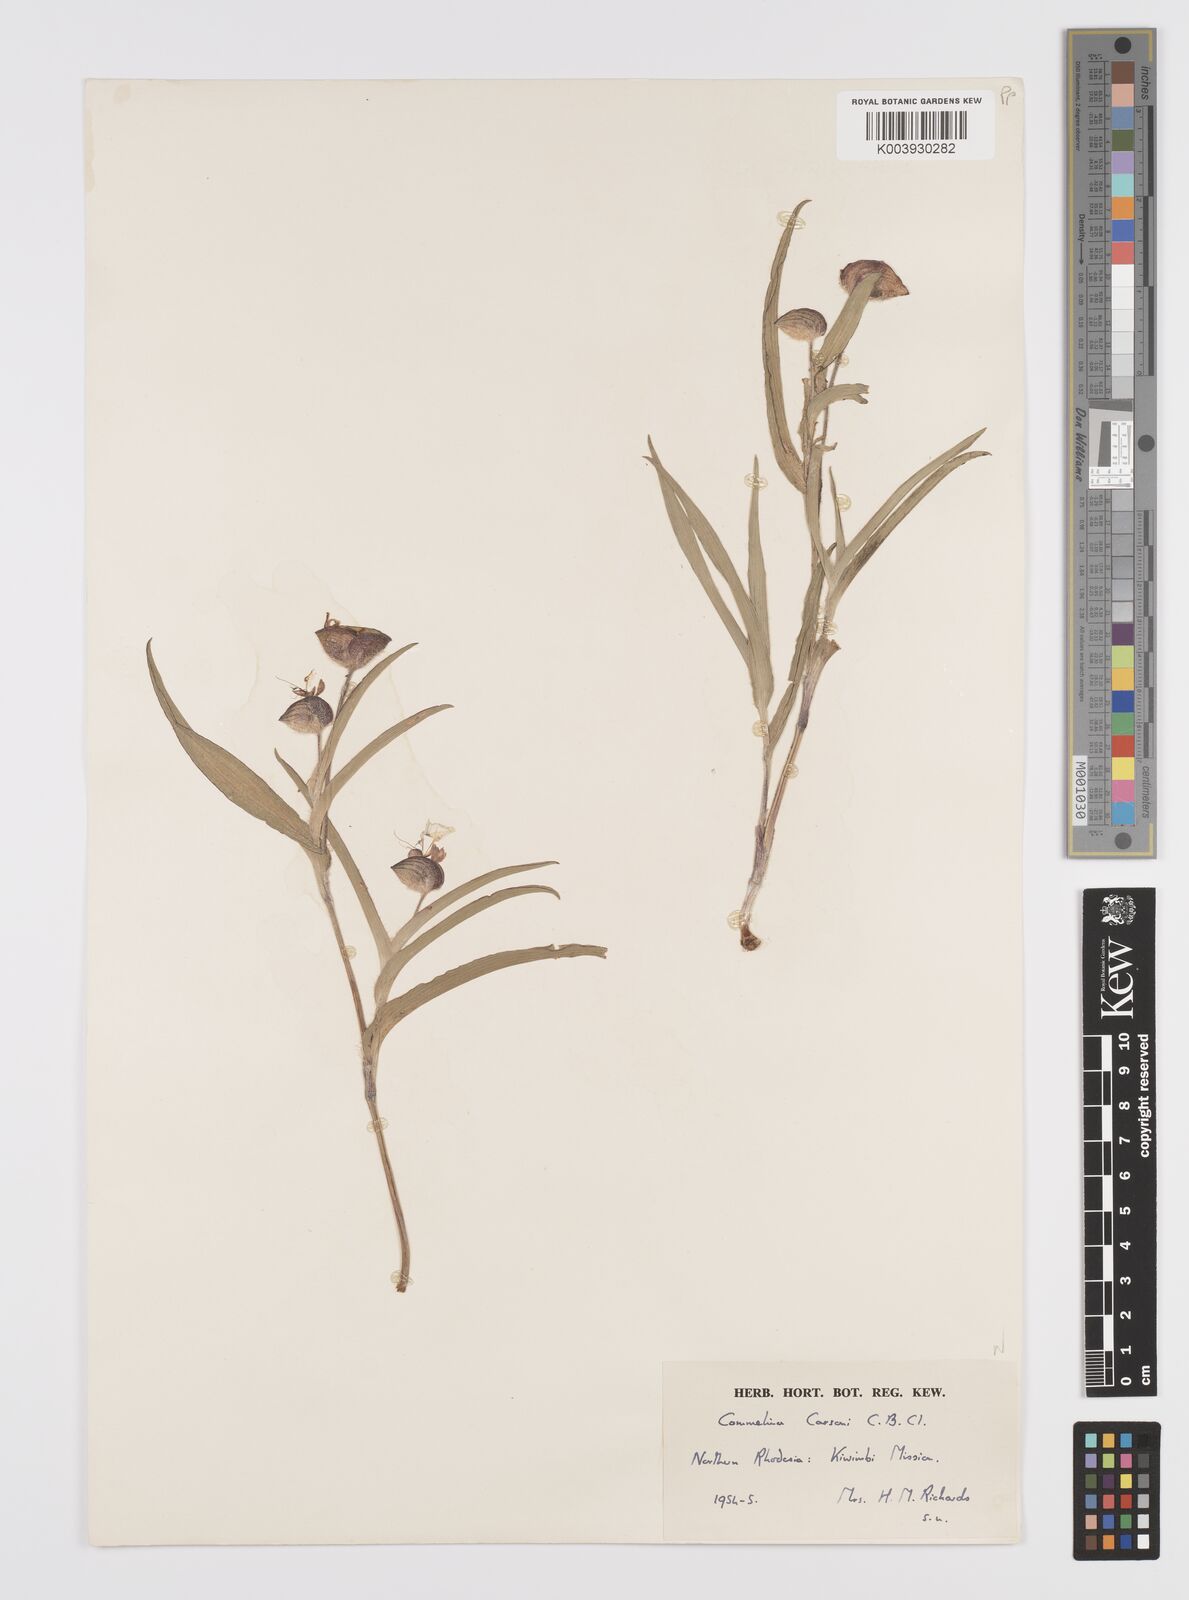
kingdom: Plantae
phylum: Tracheophyta
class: Liliopsida
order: Commelinales
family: Commelinaceae
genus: Commelina
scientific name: Commelina schweinfurthii
